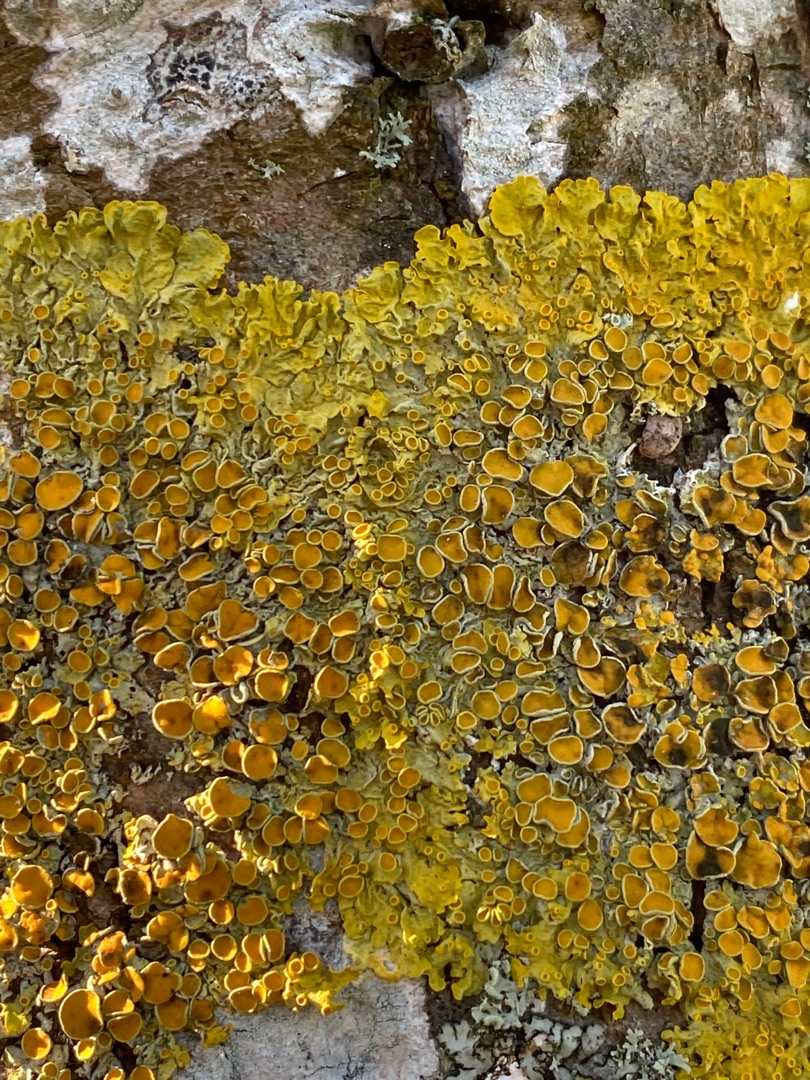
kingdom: Fungi
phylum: Ascomycota
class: Lecanoromycetes
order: Teloschistales
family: Teloschistaceae
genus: Xanthoria
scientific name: Xanthoria parietina
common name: Almindelig væggelav
